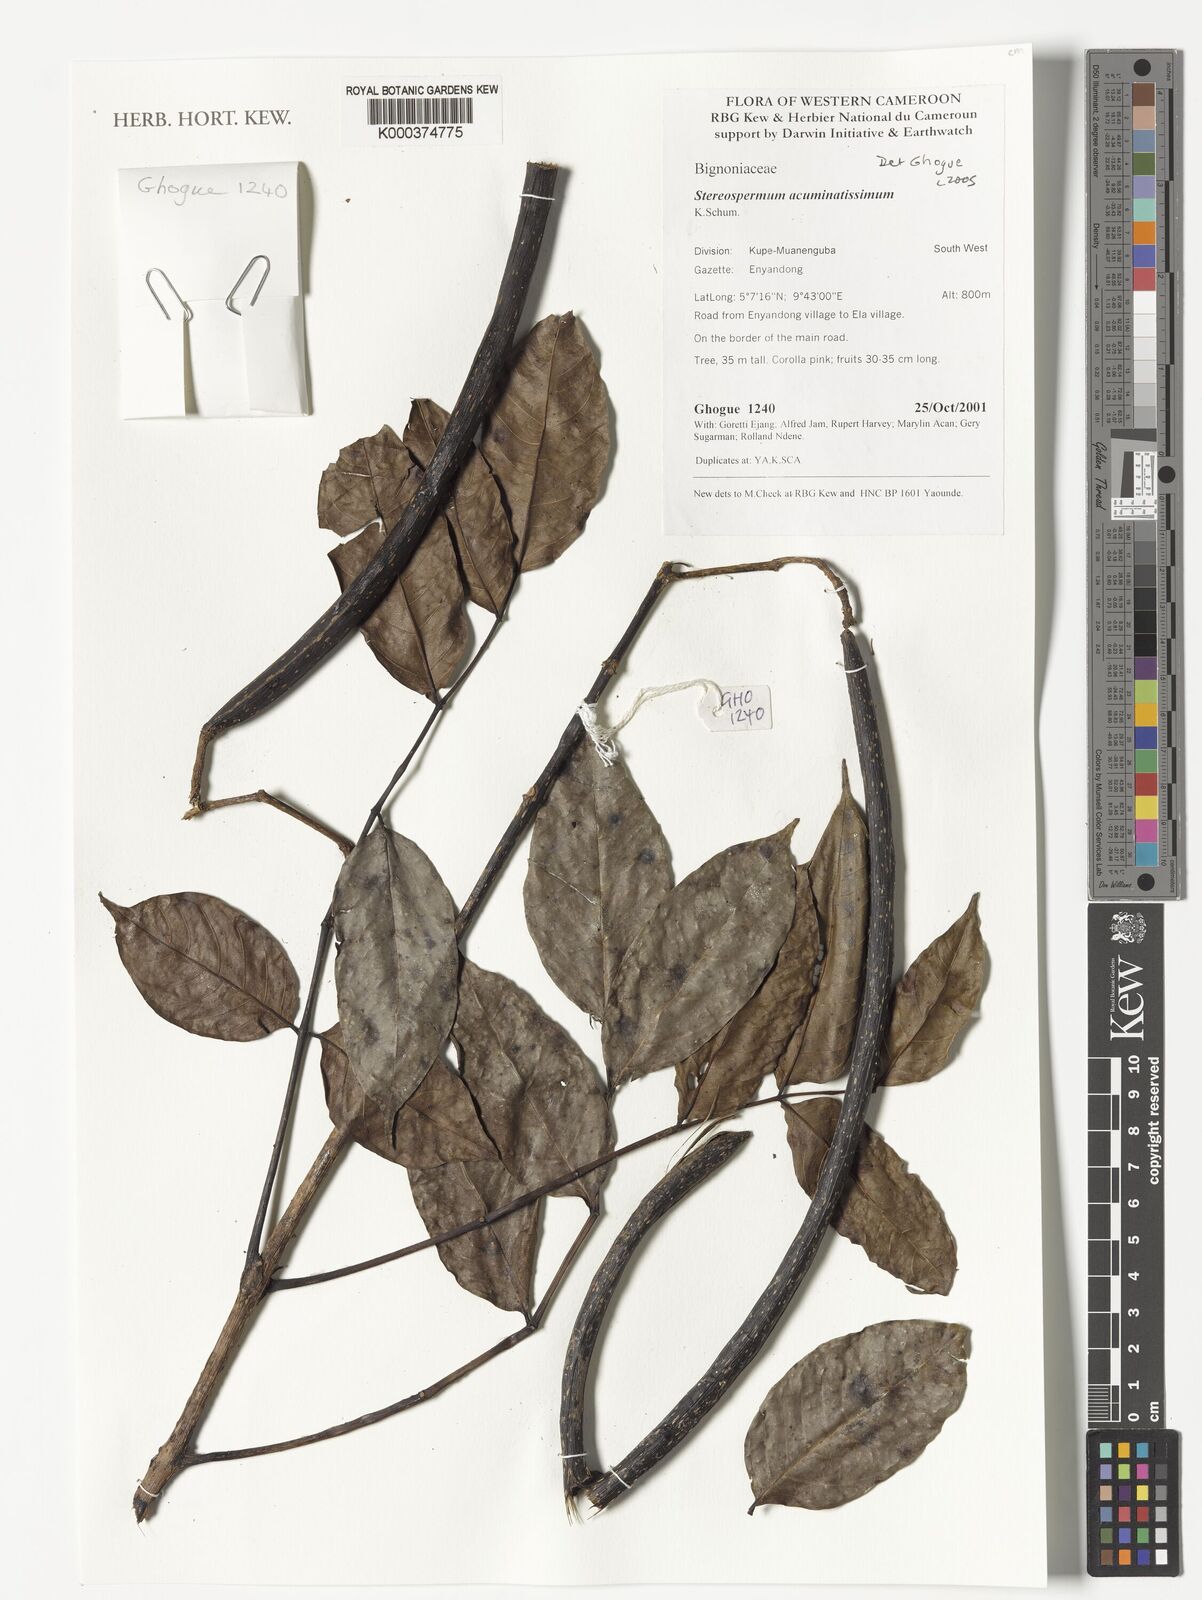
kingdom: Plantae
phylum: Tracheophyta
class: Magnoliopsida
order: Lamiales
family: Bignoniaceae
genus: Stereospermum
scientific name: Stereospermum acuminatissimum
